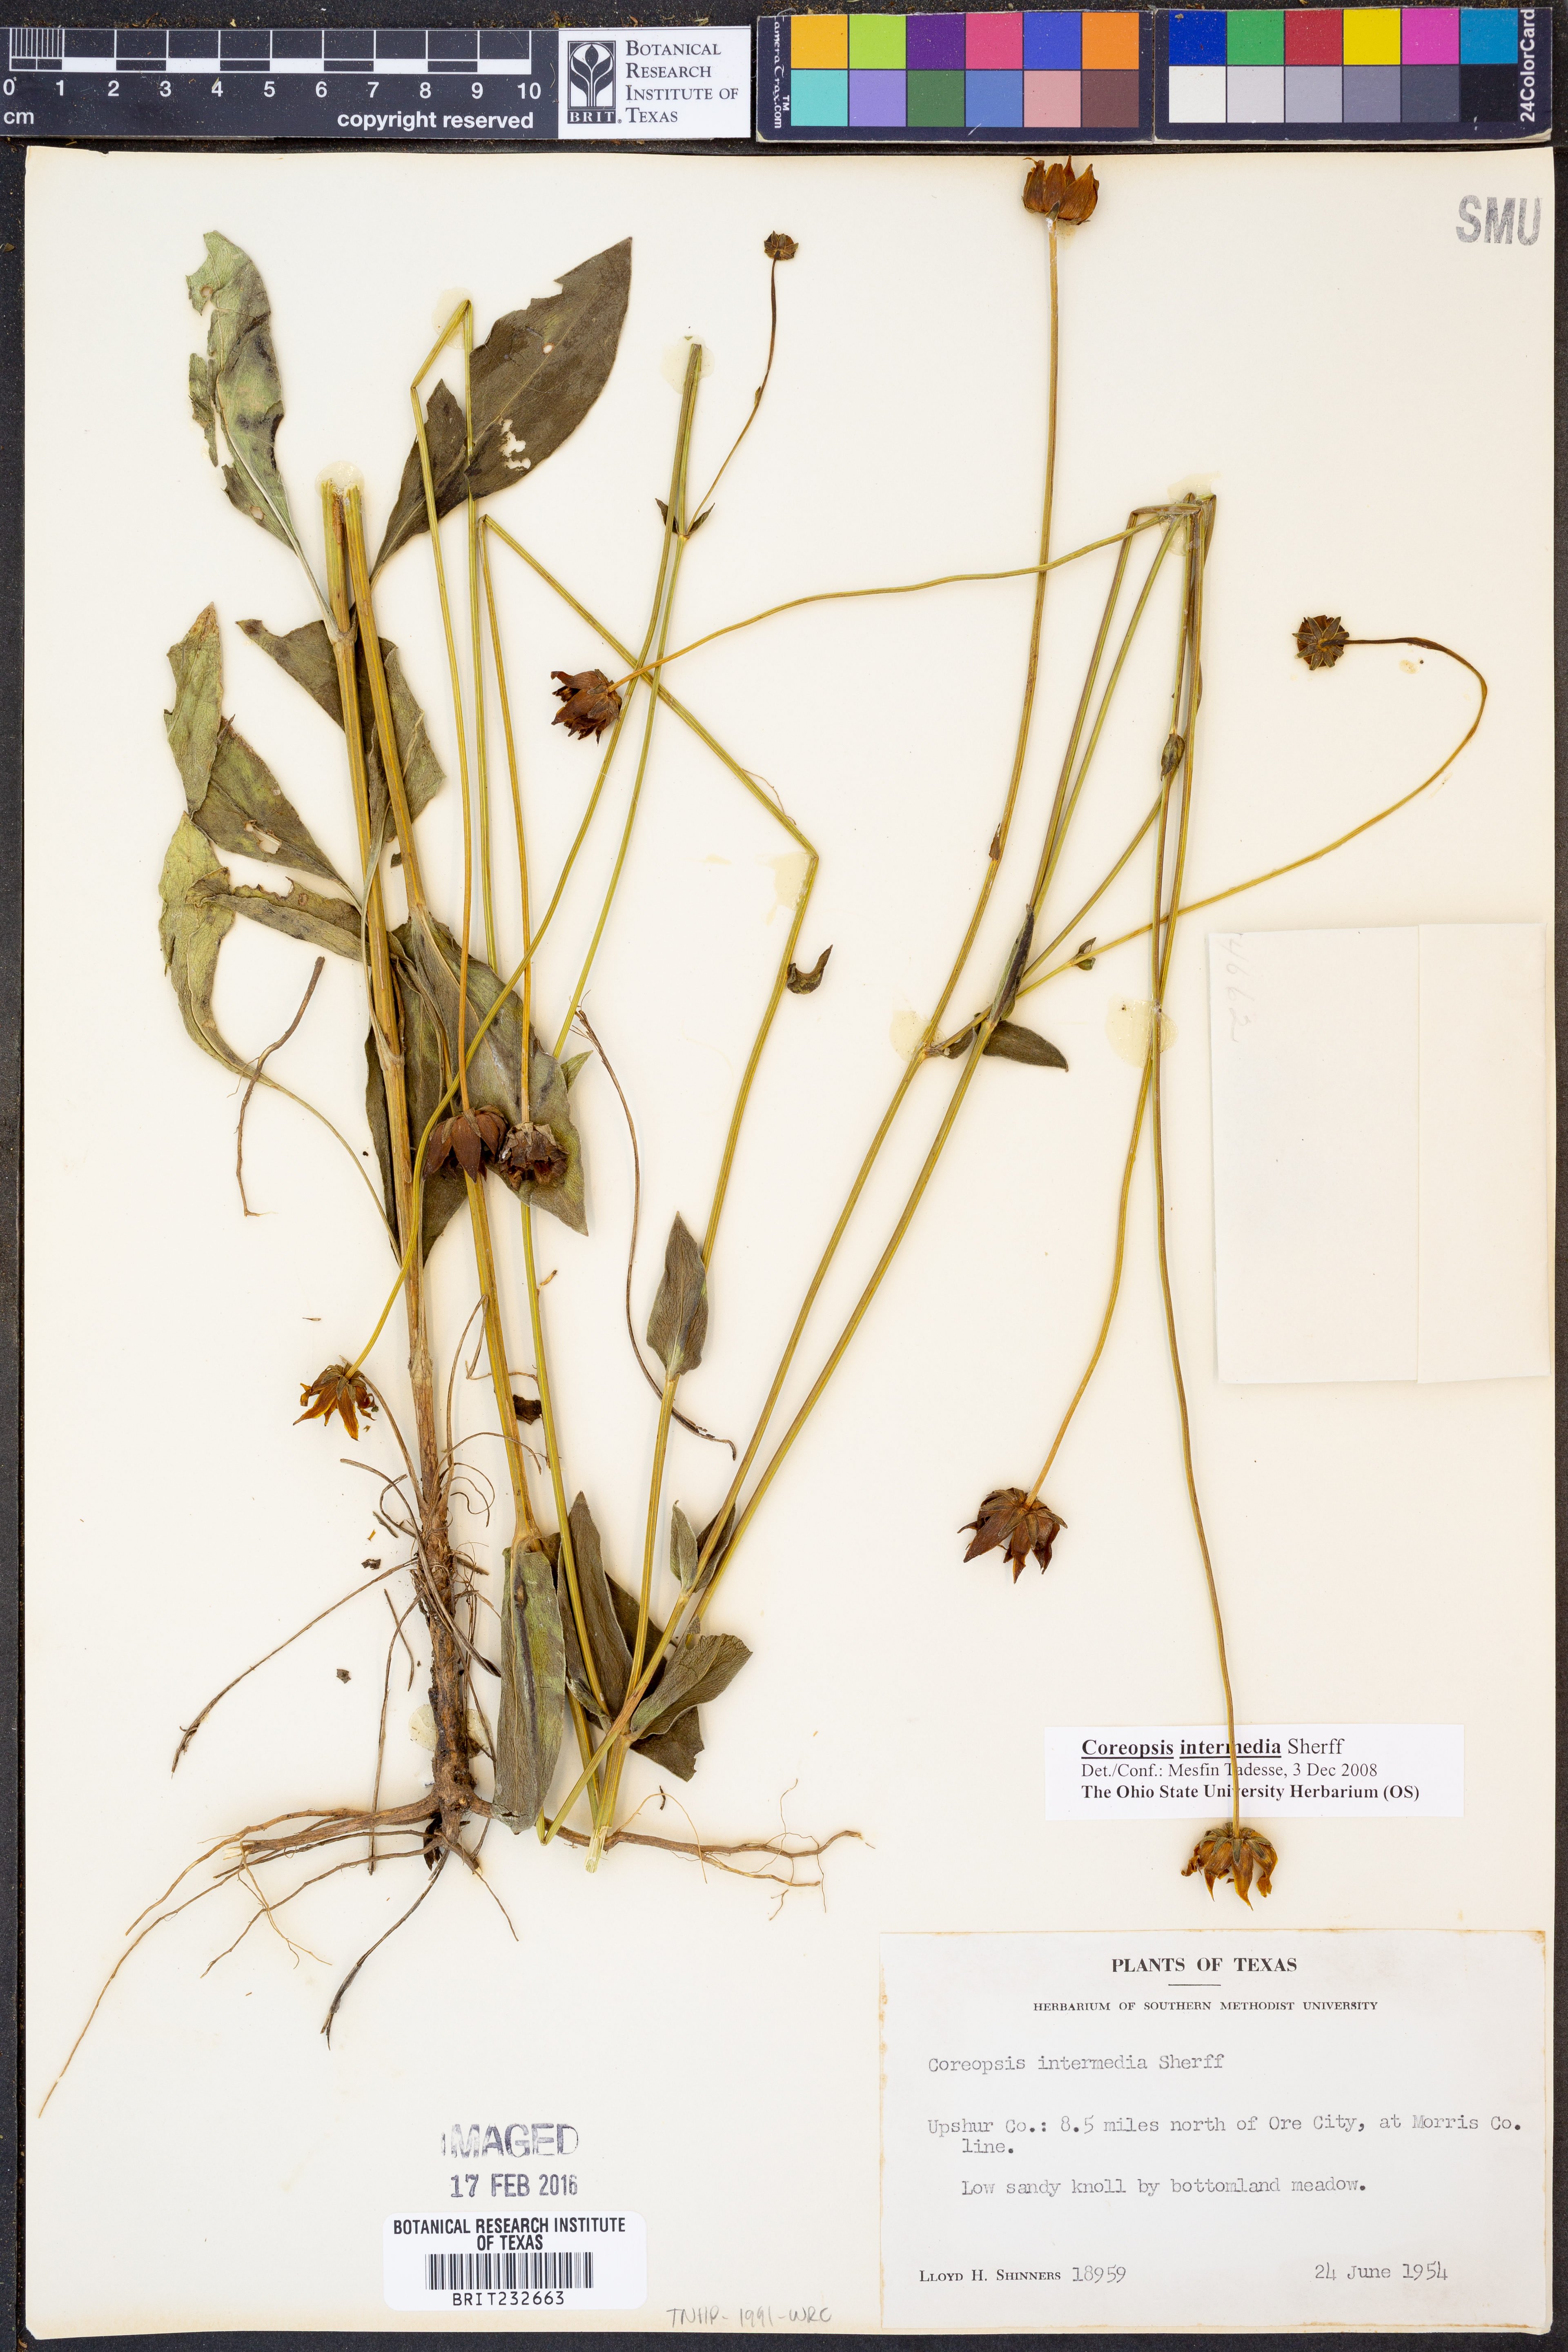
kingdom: Plantae
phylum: Tracheophyta
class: Magnoliopsida
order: Asterales
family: Asteraceae
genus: Coreopsis
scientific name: Coreopsis intermedia
